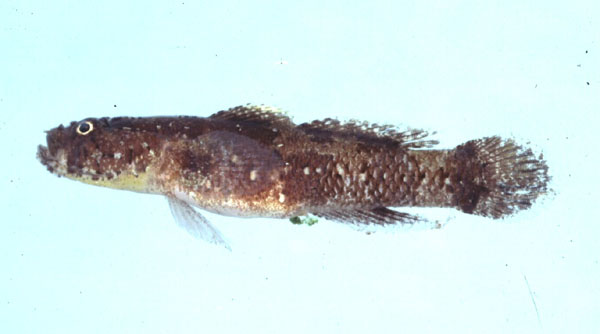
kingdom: Animalia
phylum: Chordata
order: Perciformes
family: Gobiidae
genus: Callogobius
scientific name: Callogobius flavobrunneus
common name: Slimy goby
